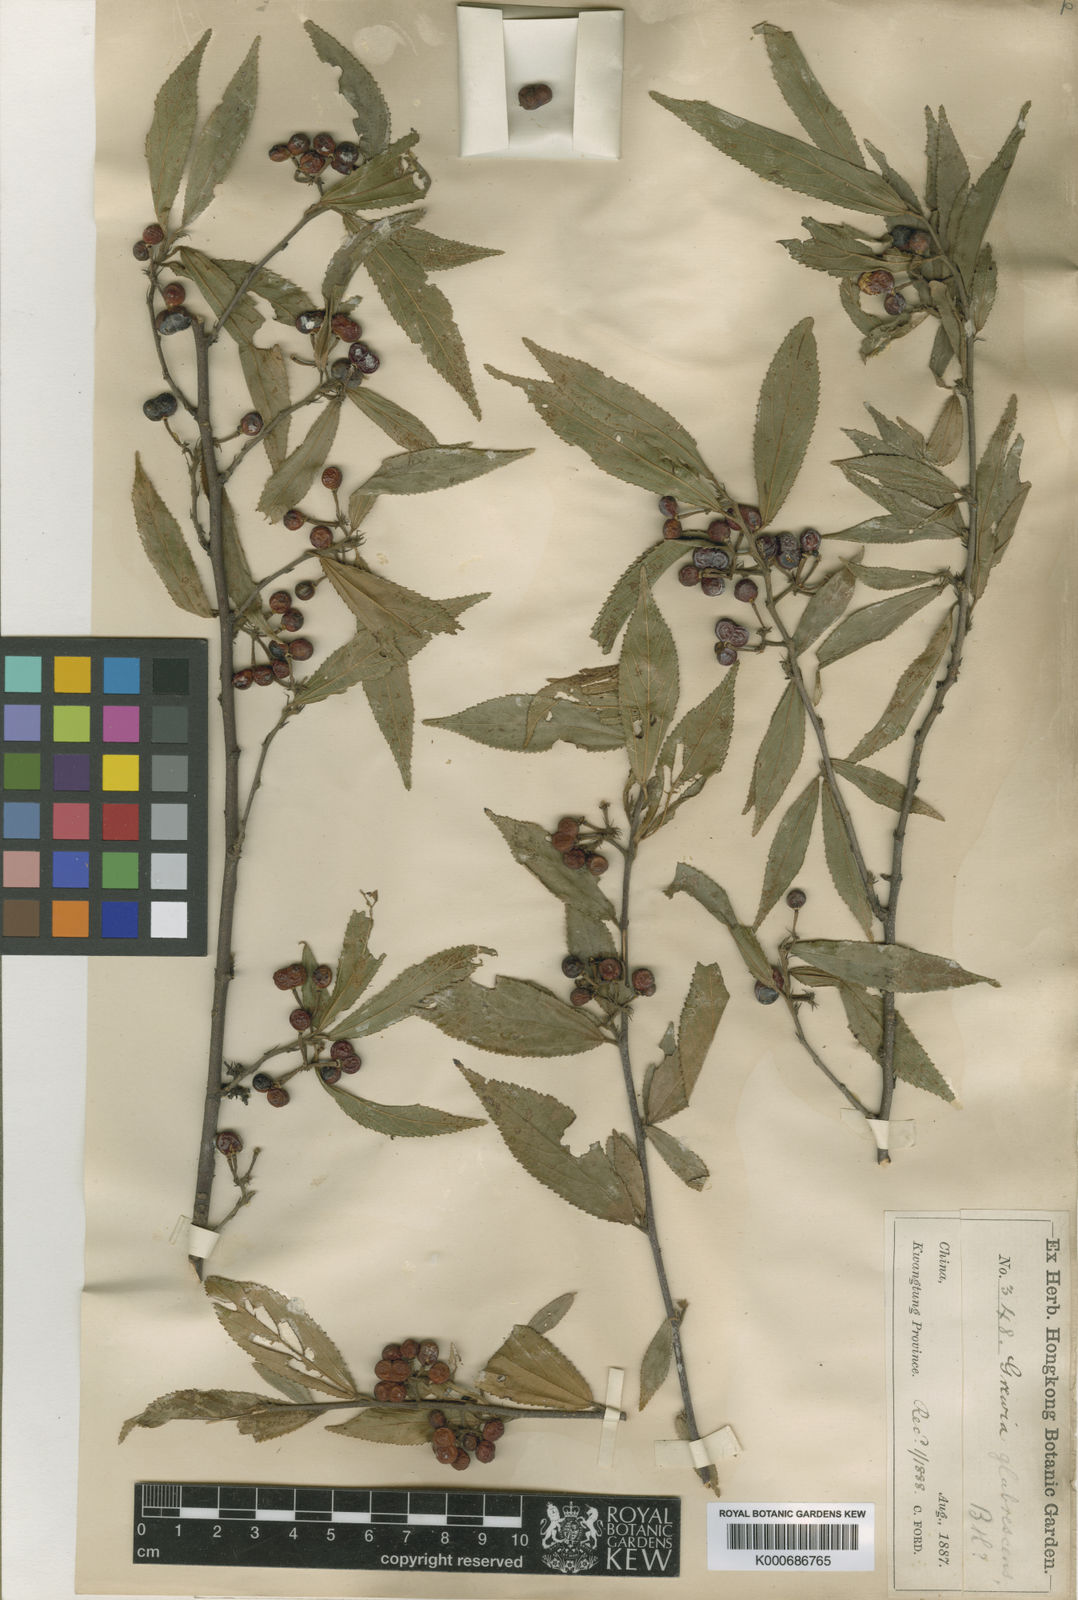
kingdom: Plantae
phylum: Tracheophyta
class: Magnoliopsida
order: Malvales
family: Malvaceae
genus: Grewia
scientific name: Grewia biloba
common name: Bilobed grewia
